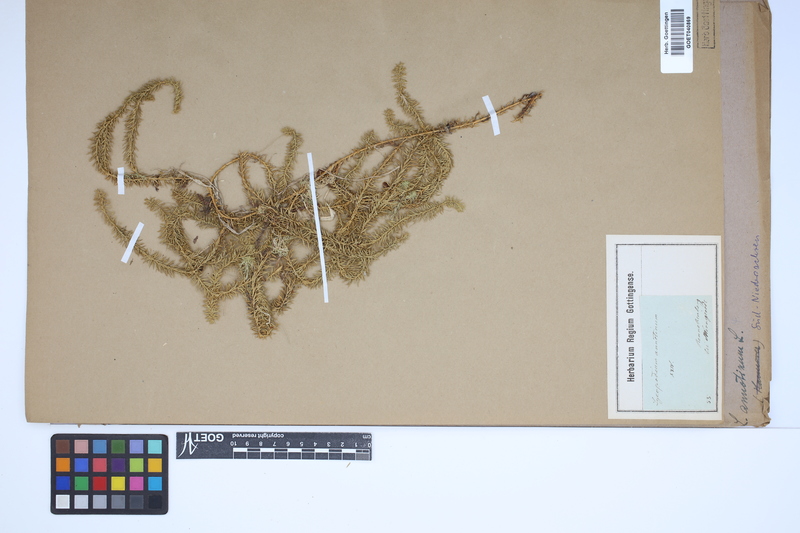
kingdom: Plantae
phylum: Tracheophyta
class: Lycopodiopsida
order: Lycopodiales
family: Lycopodiaceae
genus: Spinulum
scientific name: Spinulum annotinum
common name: Interrupted club-moss
